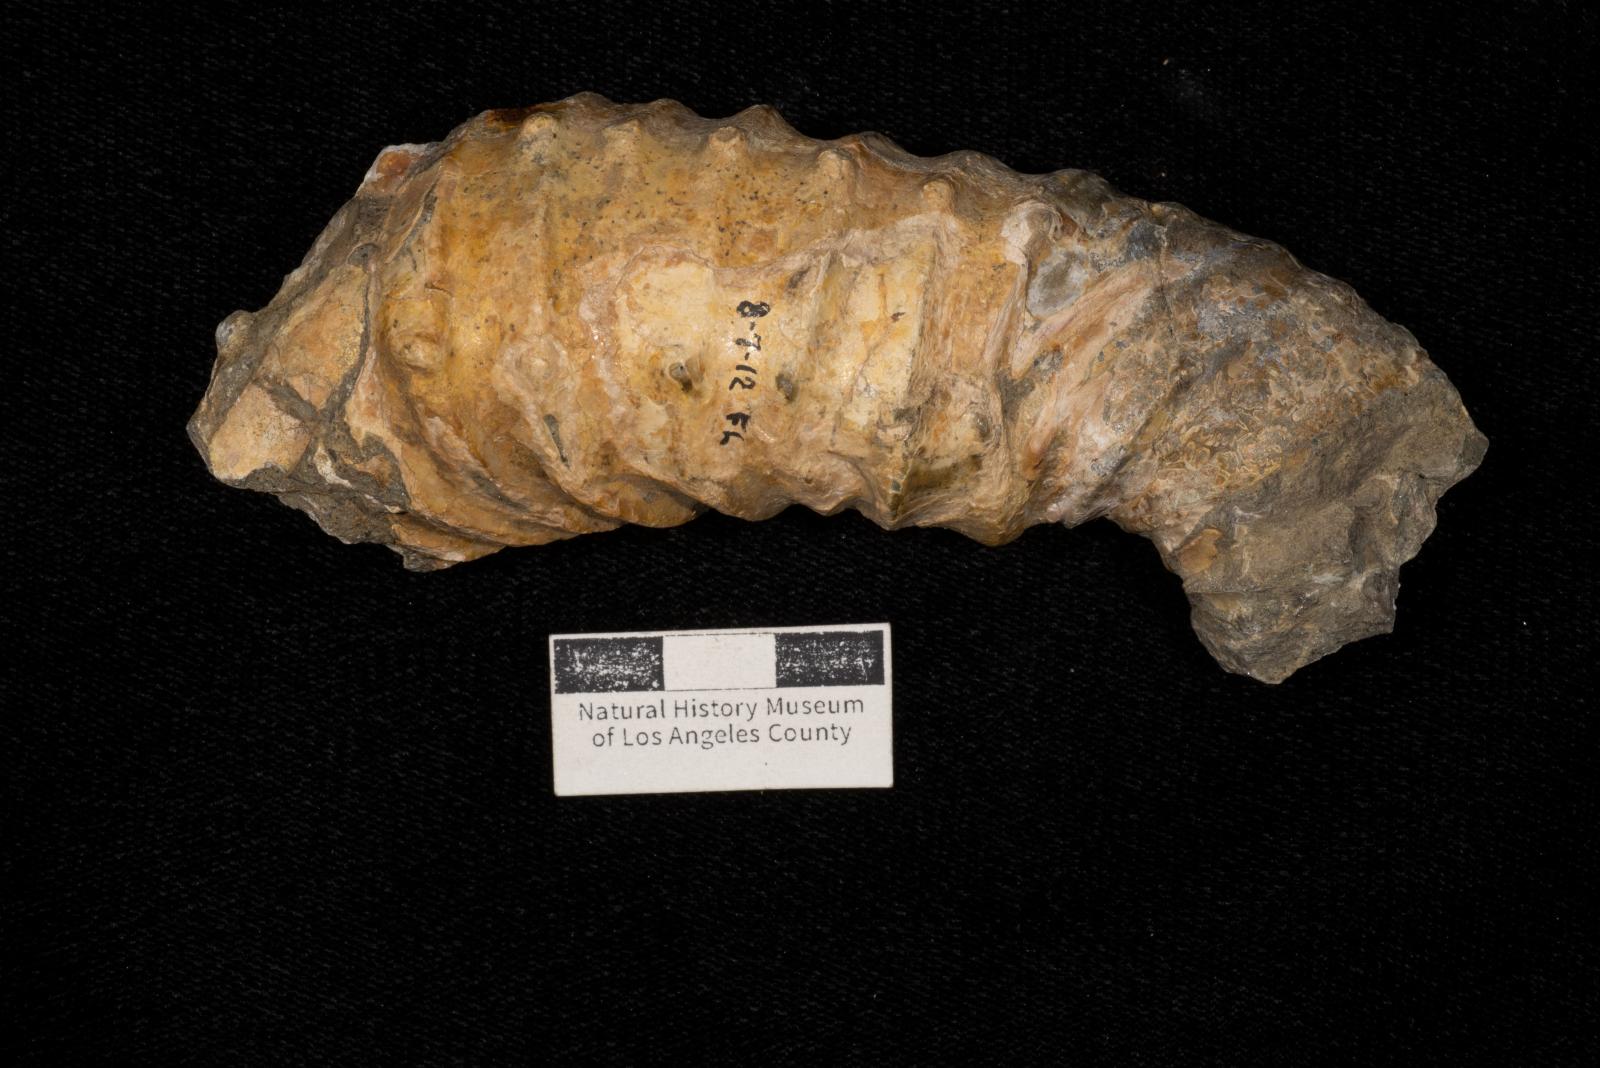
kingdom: Animalia
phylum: Mollusca
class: Cephalopoda
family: Nostoceratidae
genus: Didymoceras
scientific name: Didymoceras draconis
